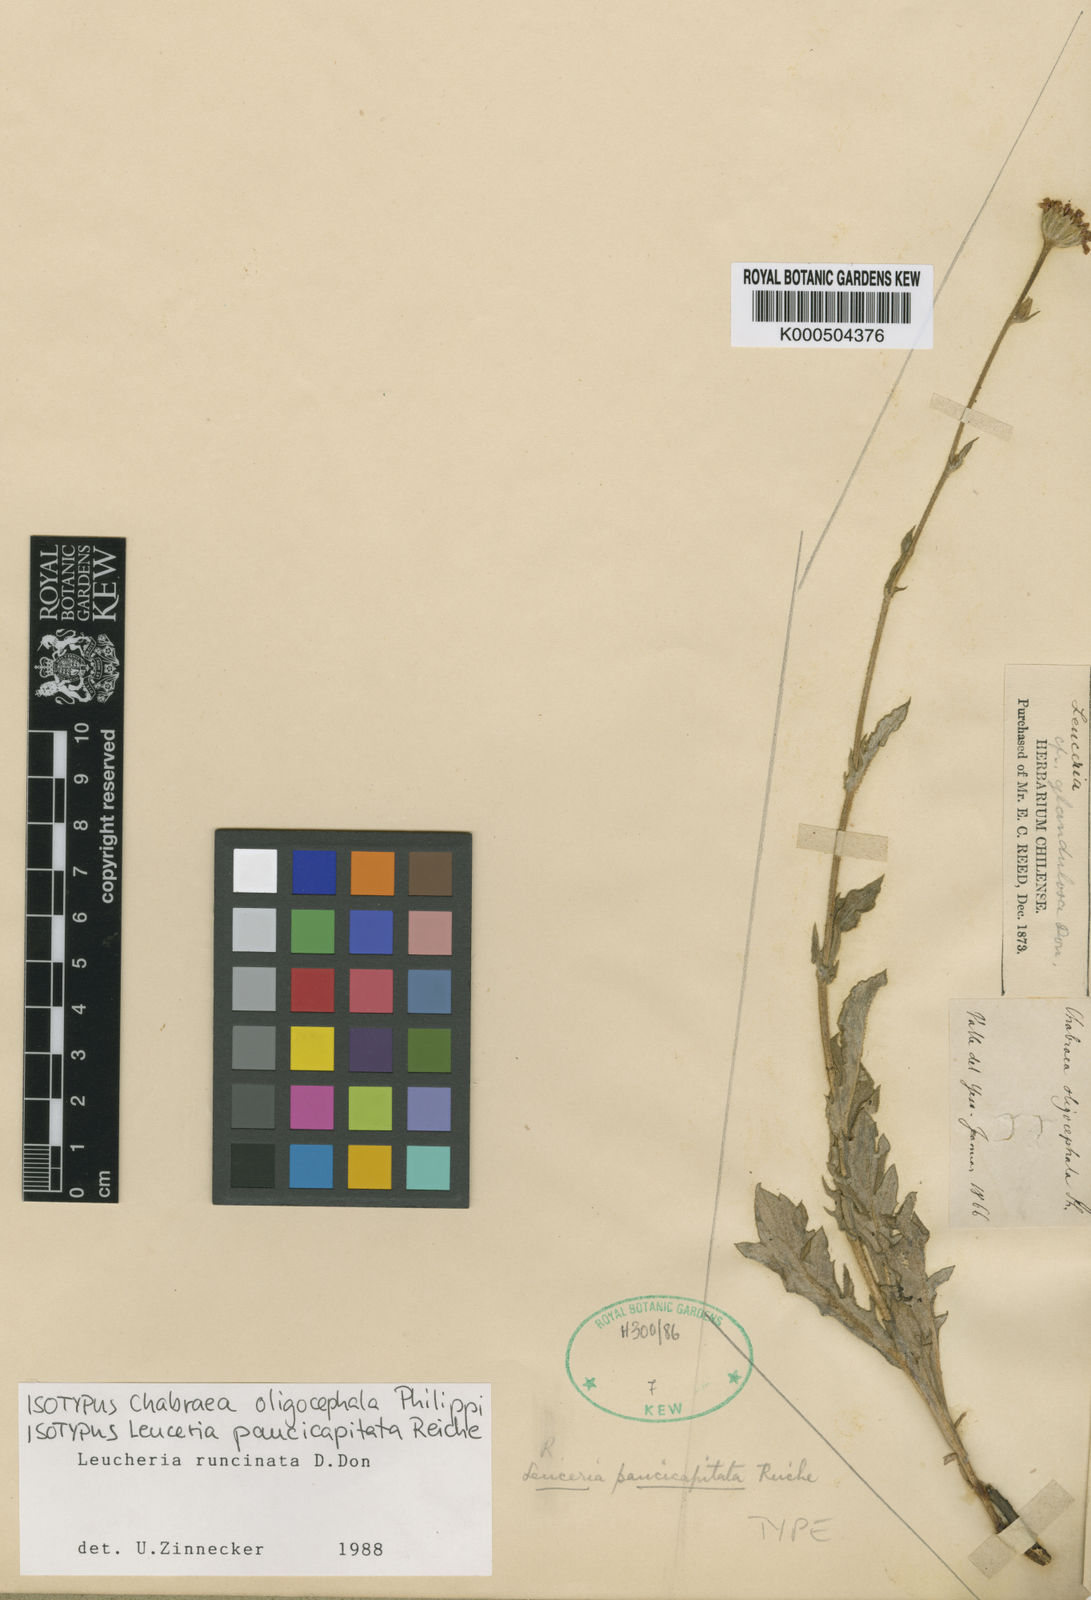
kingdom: Plantae
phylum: Tracheophyta
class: Magnoliopsida
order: Asterales
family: Asteraceae
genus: Leucheria
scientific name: Leucheria runcinata
